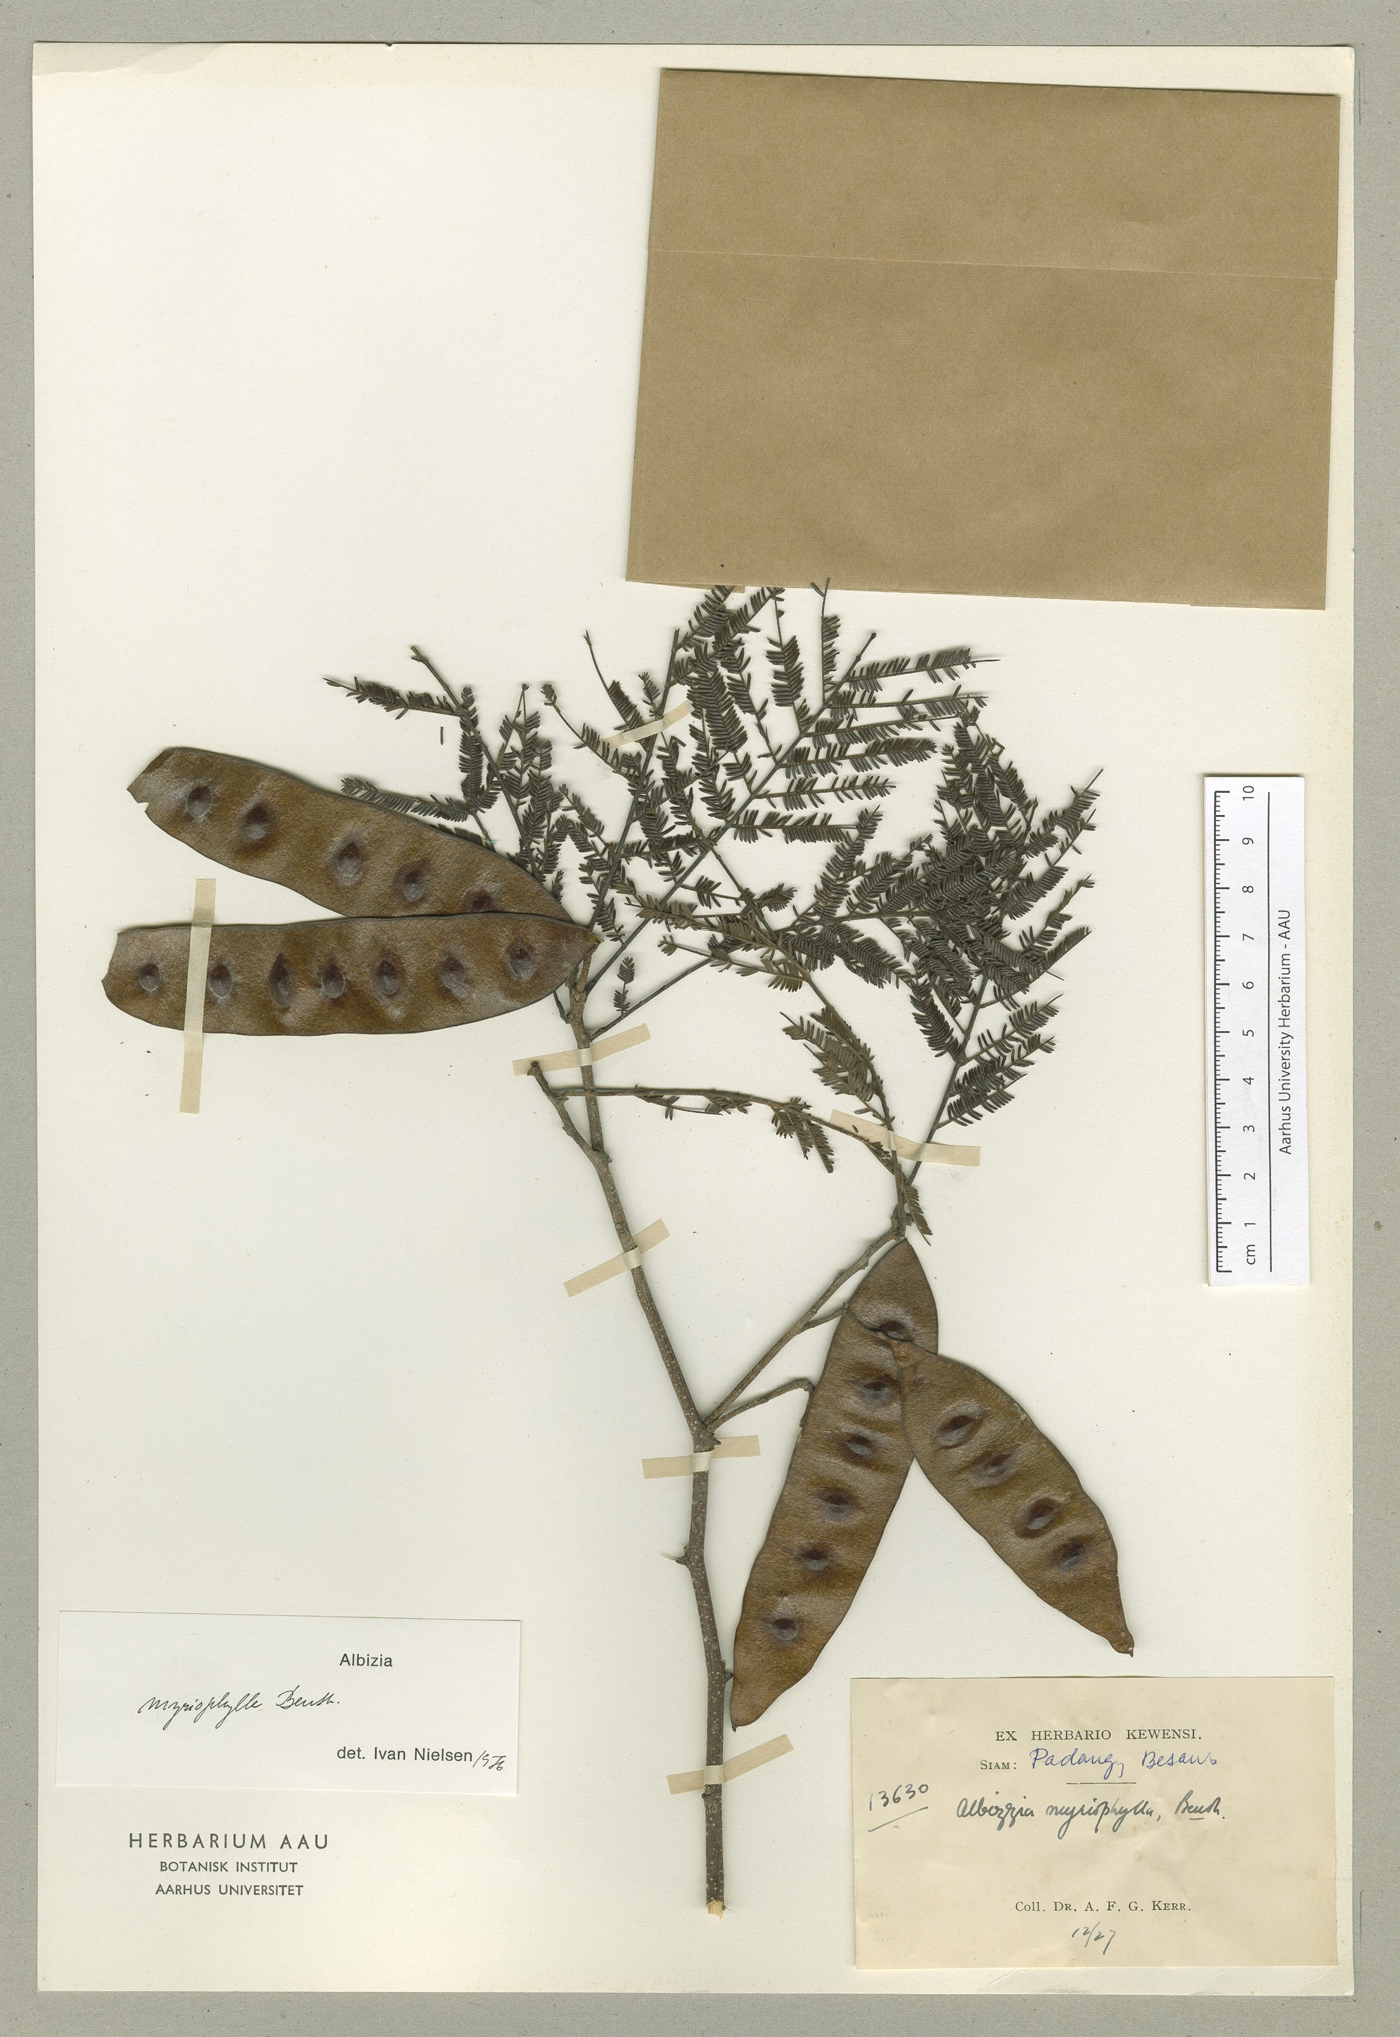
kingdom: Plantae
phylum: Tracheophyta
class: Magnoliopsida
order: Fabales
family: Fabaceae
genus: Albizia
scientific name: Albizia myriophylla
